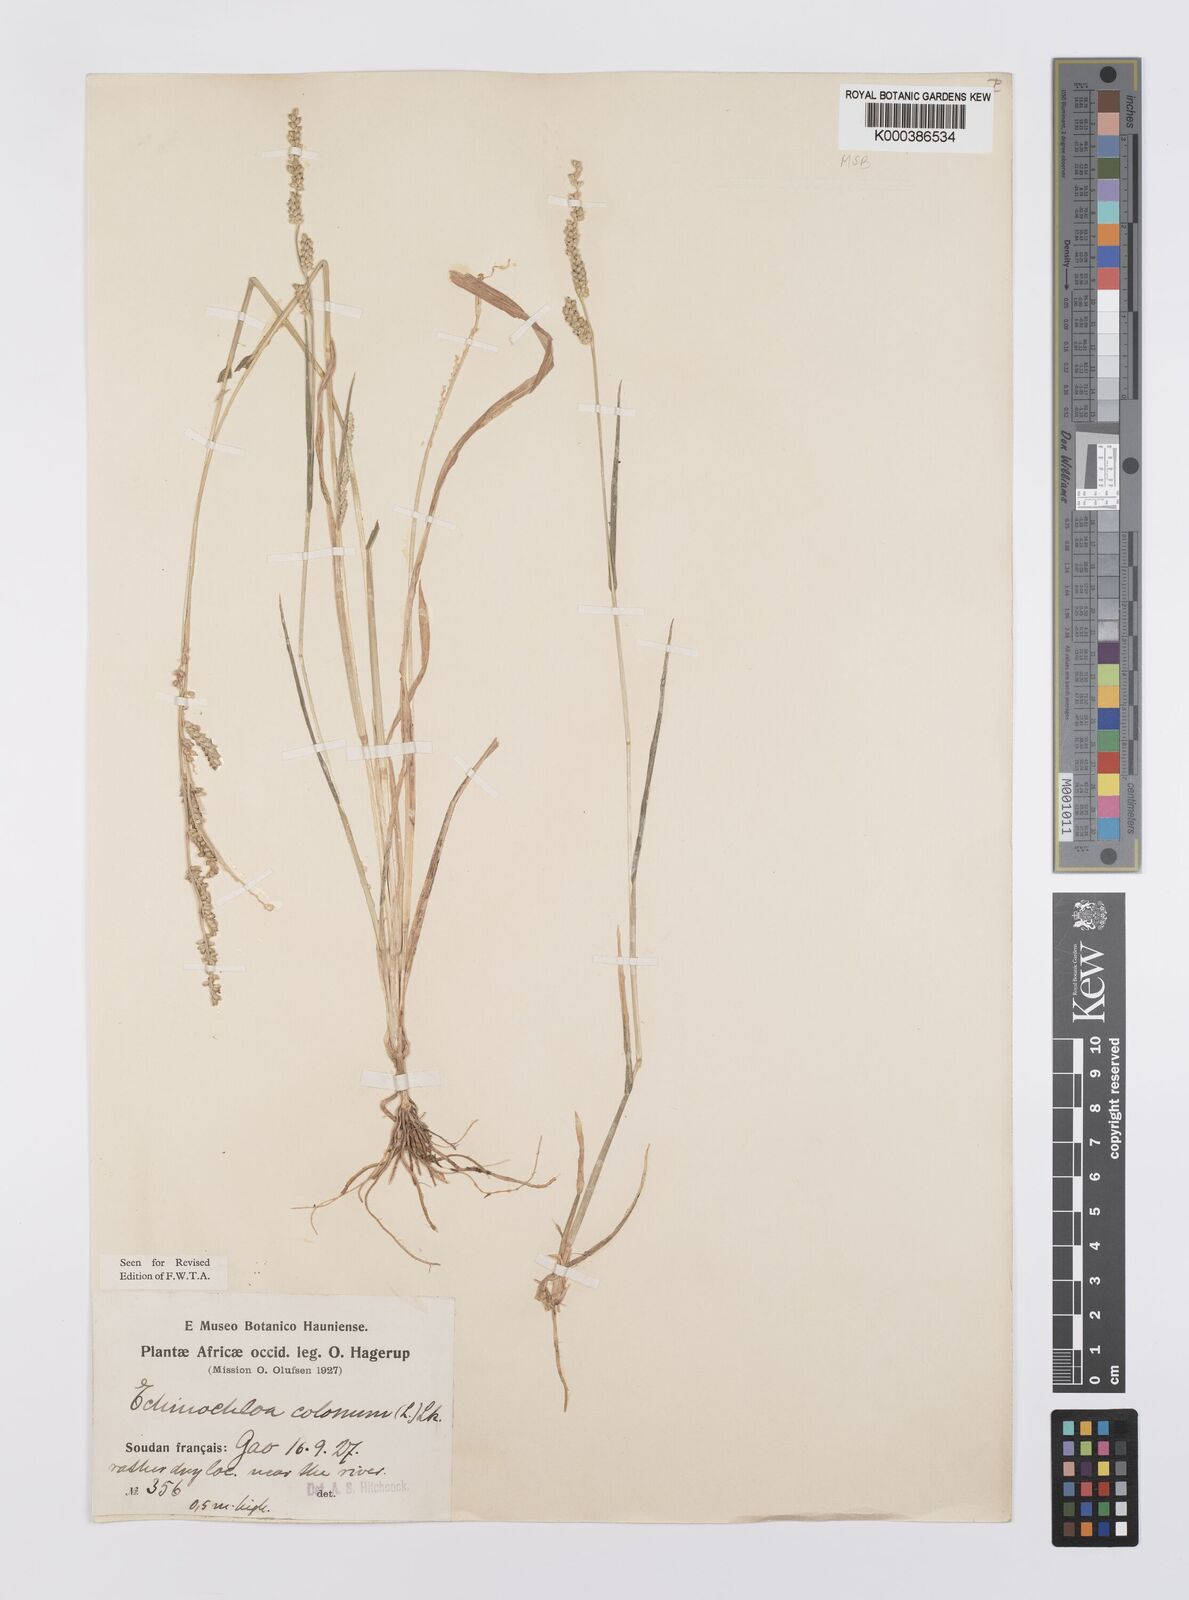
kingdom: Plantae
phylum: Tracheophyta
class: Liliopsida
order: Poales
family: Poaceae
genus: Echinochloa
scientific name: Echinochloa colonum
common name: Jungle rice
